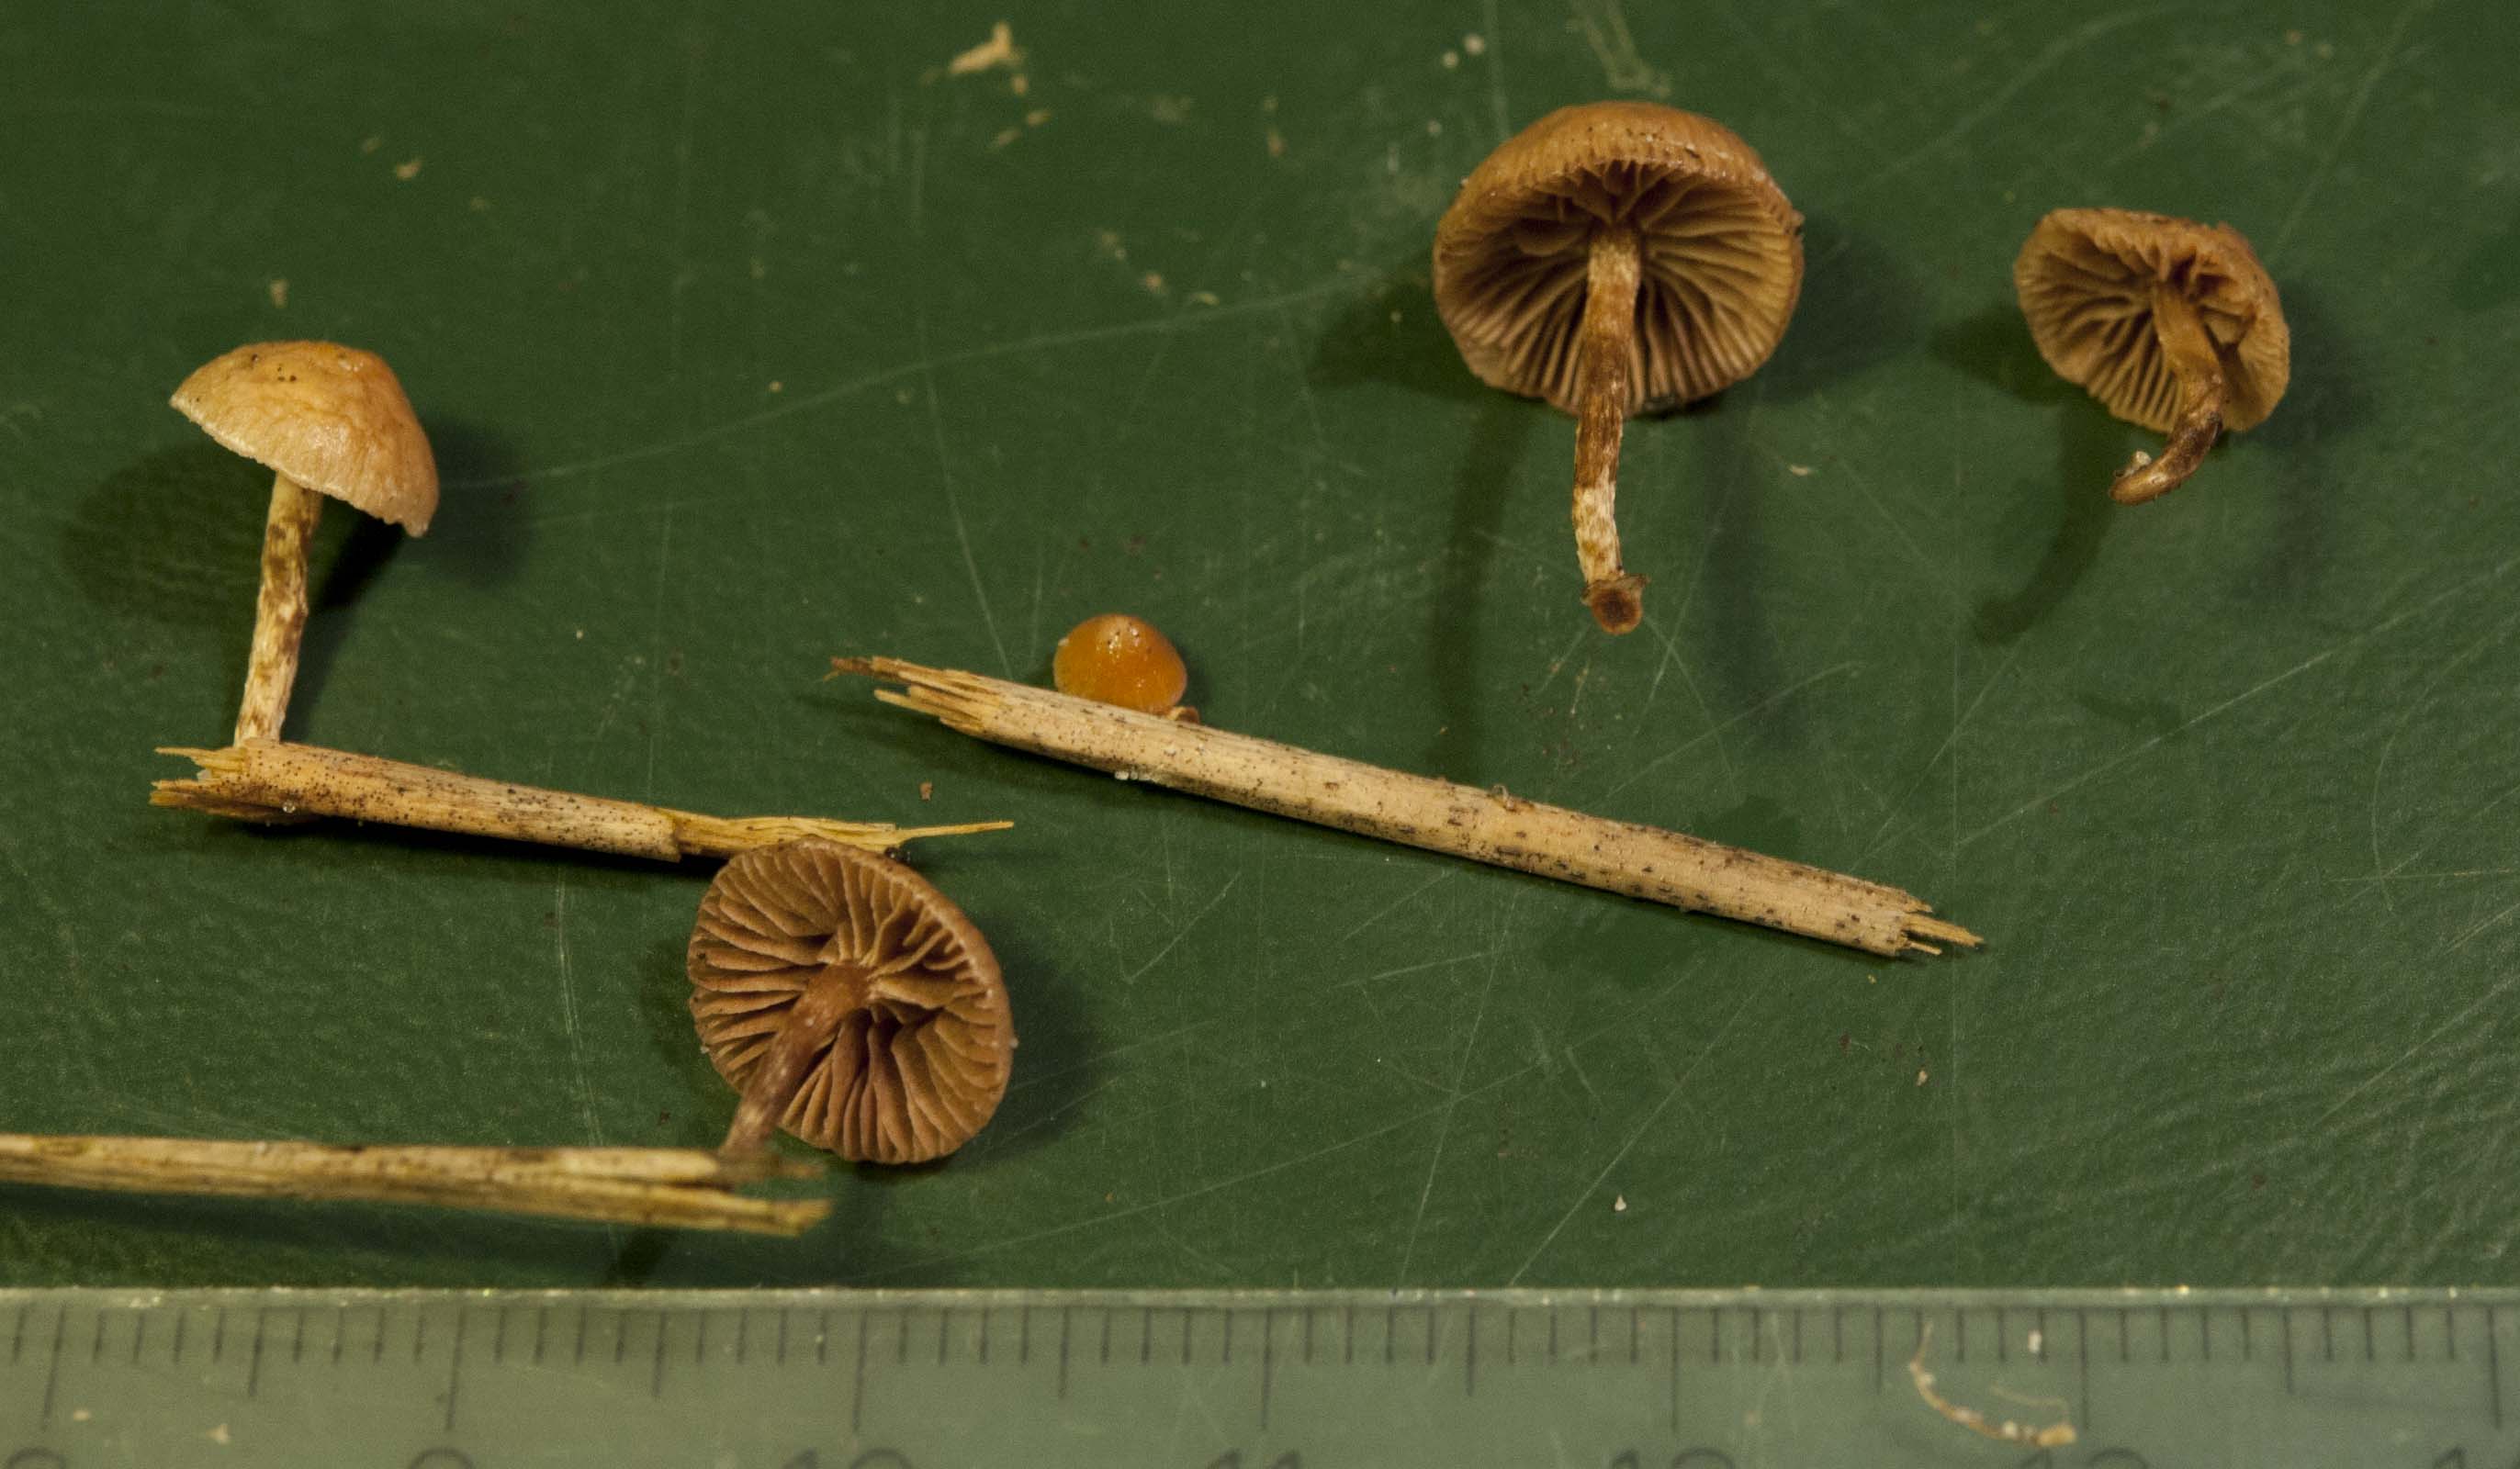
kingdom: Fungi
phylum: Basidiomycota
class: Agaricomycetes
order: Agaricales
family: Strophariaceae
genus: Deconica
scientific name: Deconica inquilina
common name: græs-stråhat
